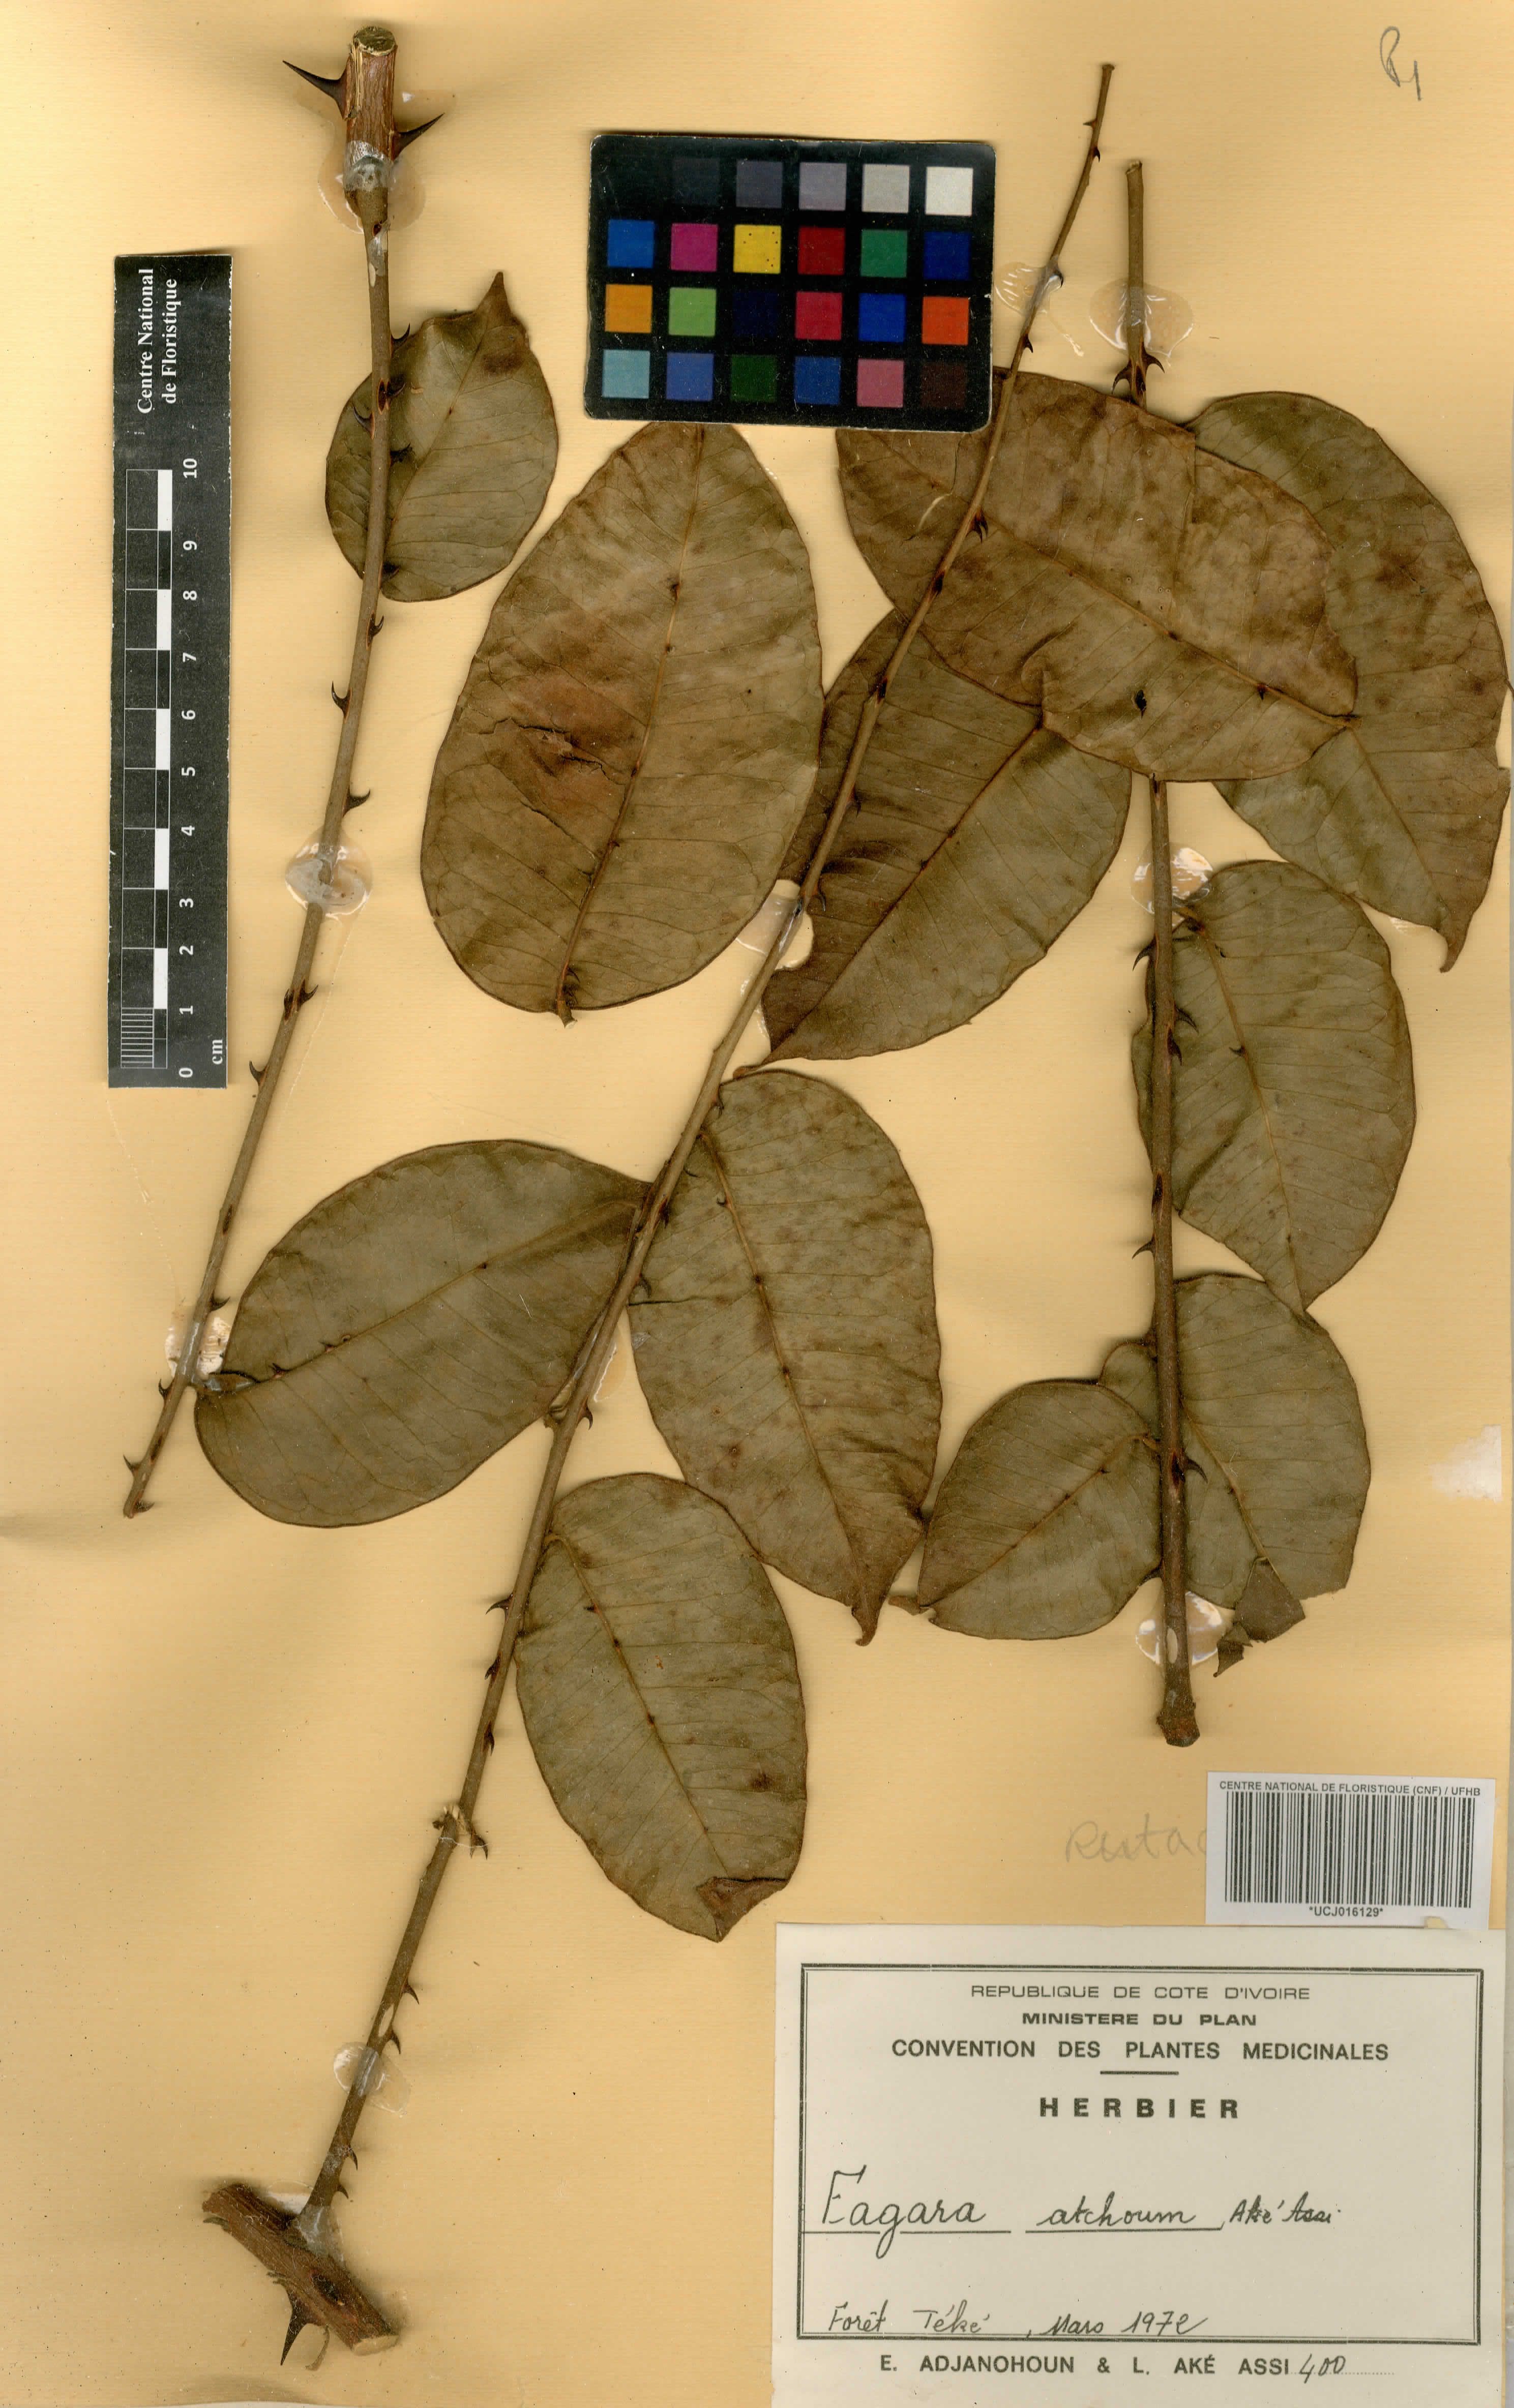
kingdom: Plantae
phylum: Tracheophyta
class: Magnoliopsida
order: Sapindales
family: Rutaceae
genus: Zanthoxylum
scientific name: Zanthoxylum atchoum
